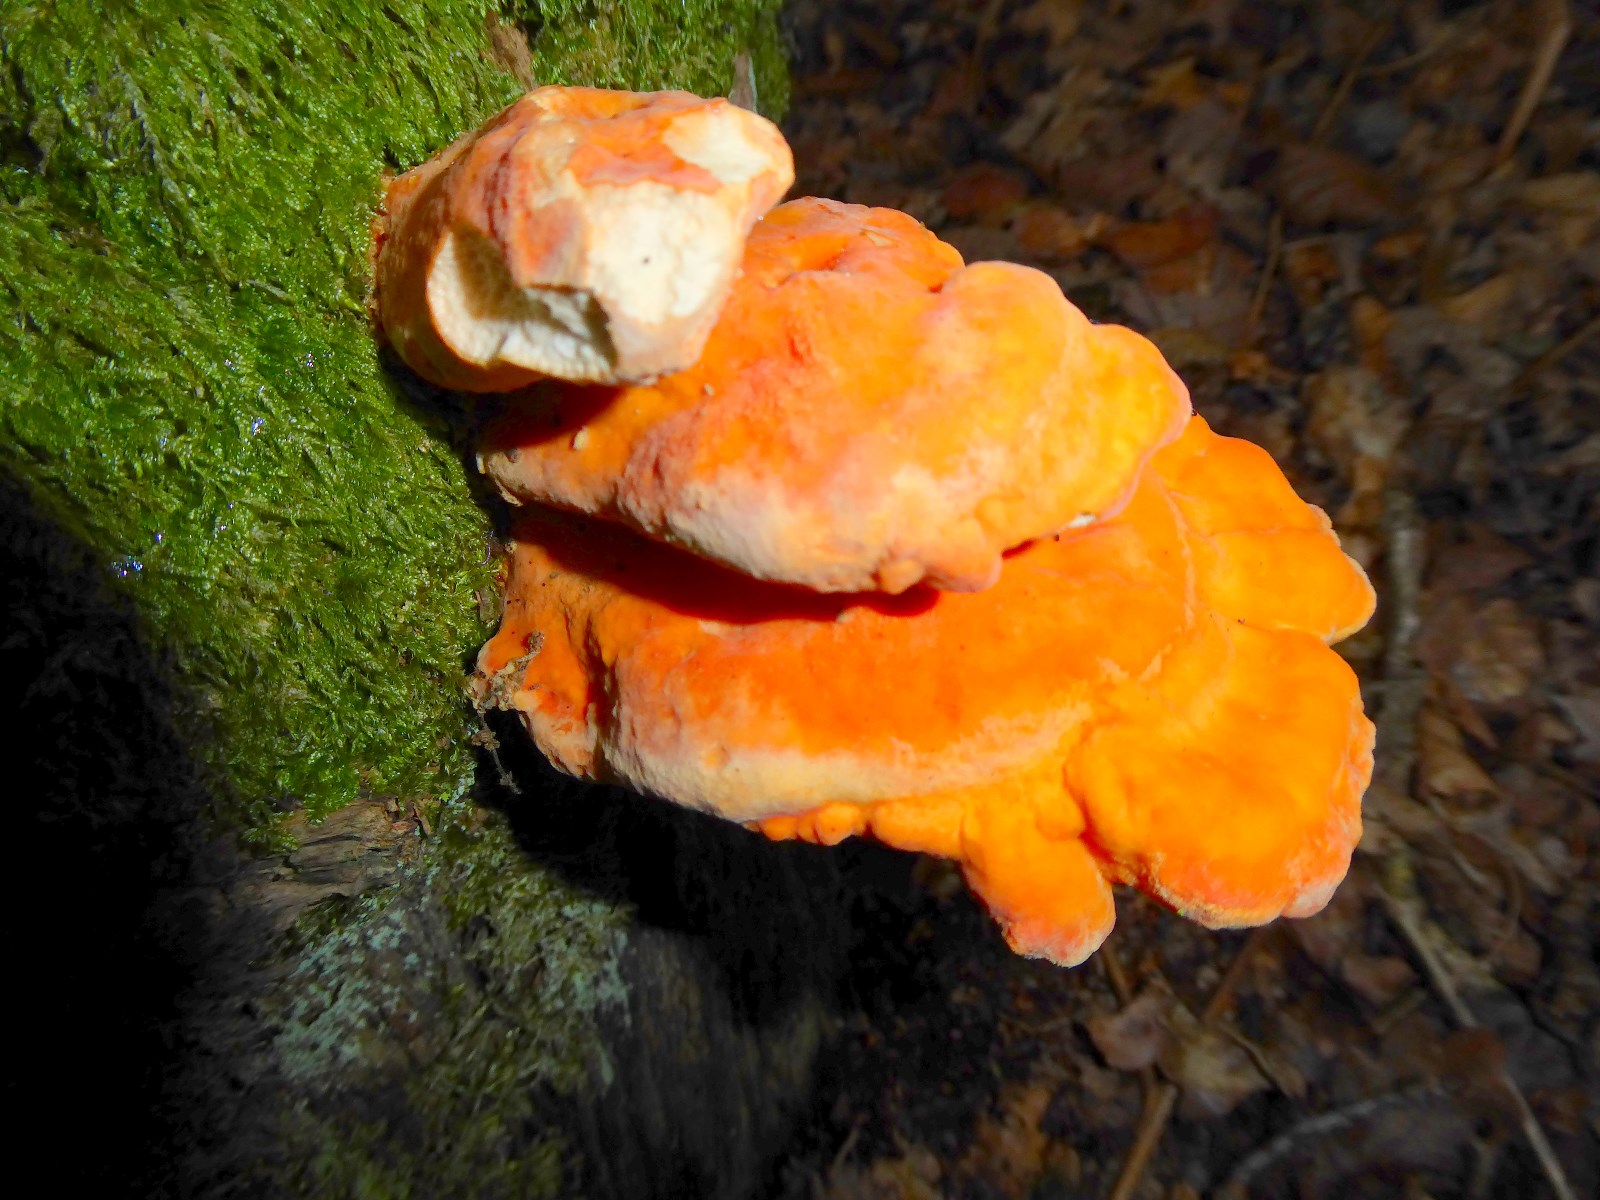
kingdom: Fungi
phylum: Basidiomycota
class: Agaricomycetes
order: Polyporales
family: Laetiporaceae
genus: Laetiporus
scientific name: Laetiporus sulphureus
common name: svovlporesvamp
